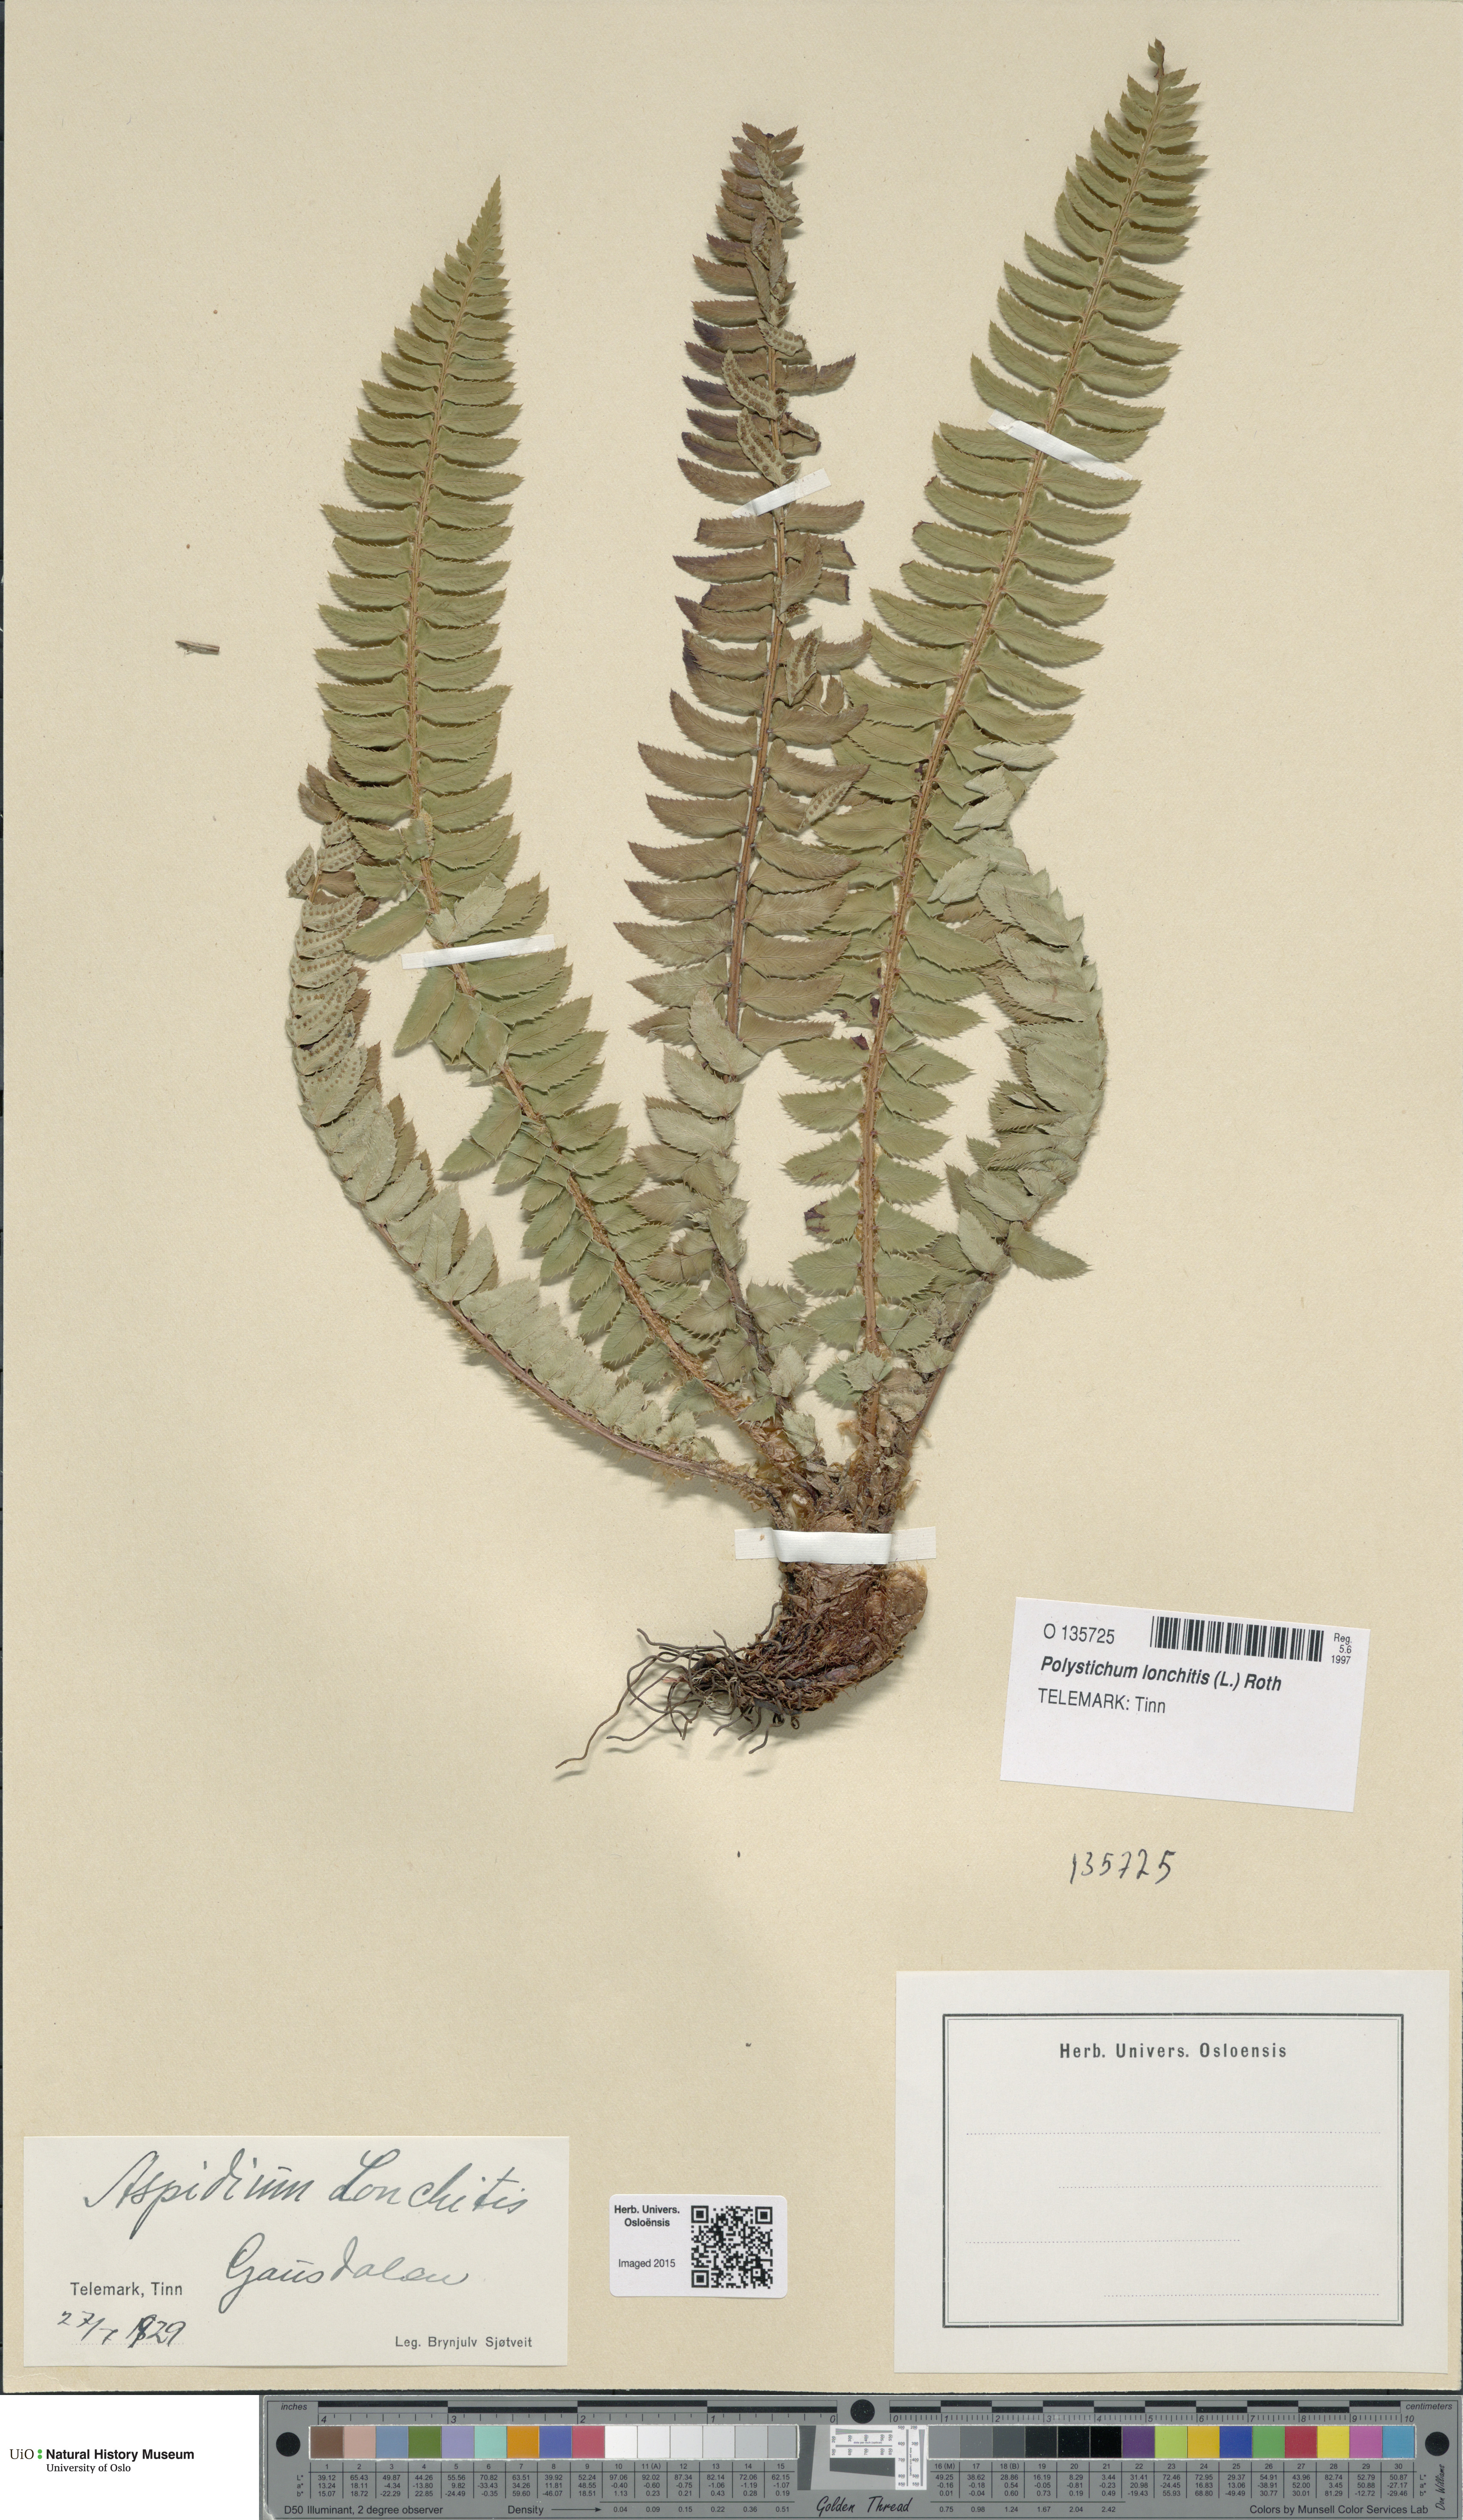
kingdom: Plantae
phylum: Tracheophyta
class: Polypodiopsida
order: Polypodiales
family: Dryopteridaceae
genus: Polystichum
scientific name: Polystichum lonchitis
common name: Holly fern
